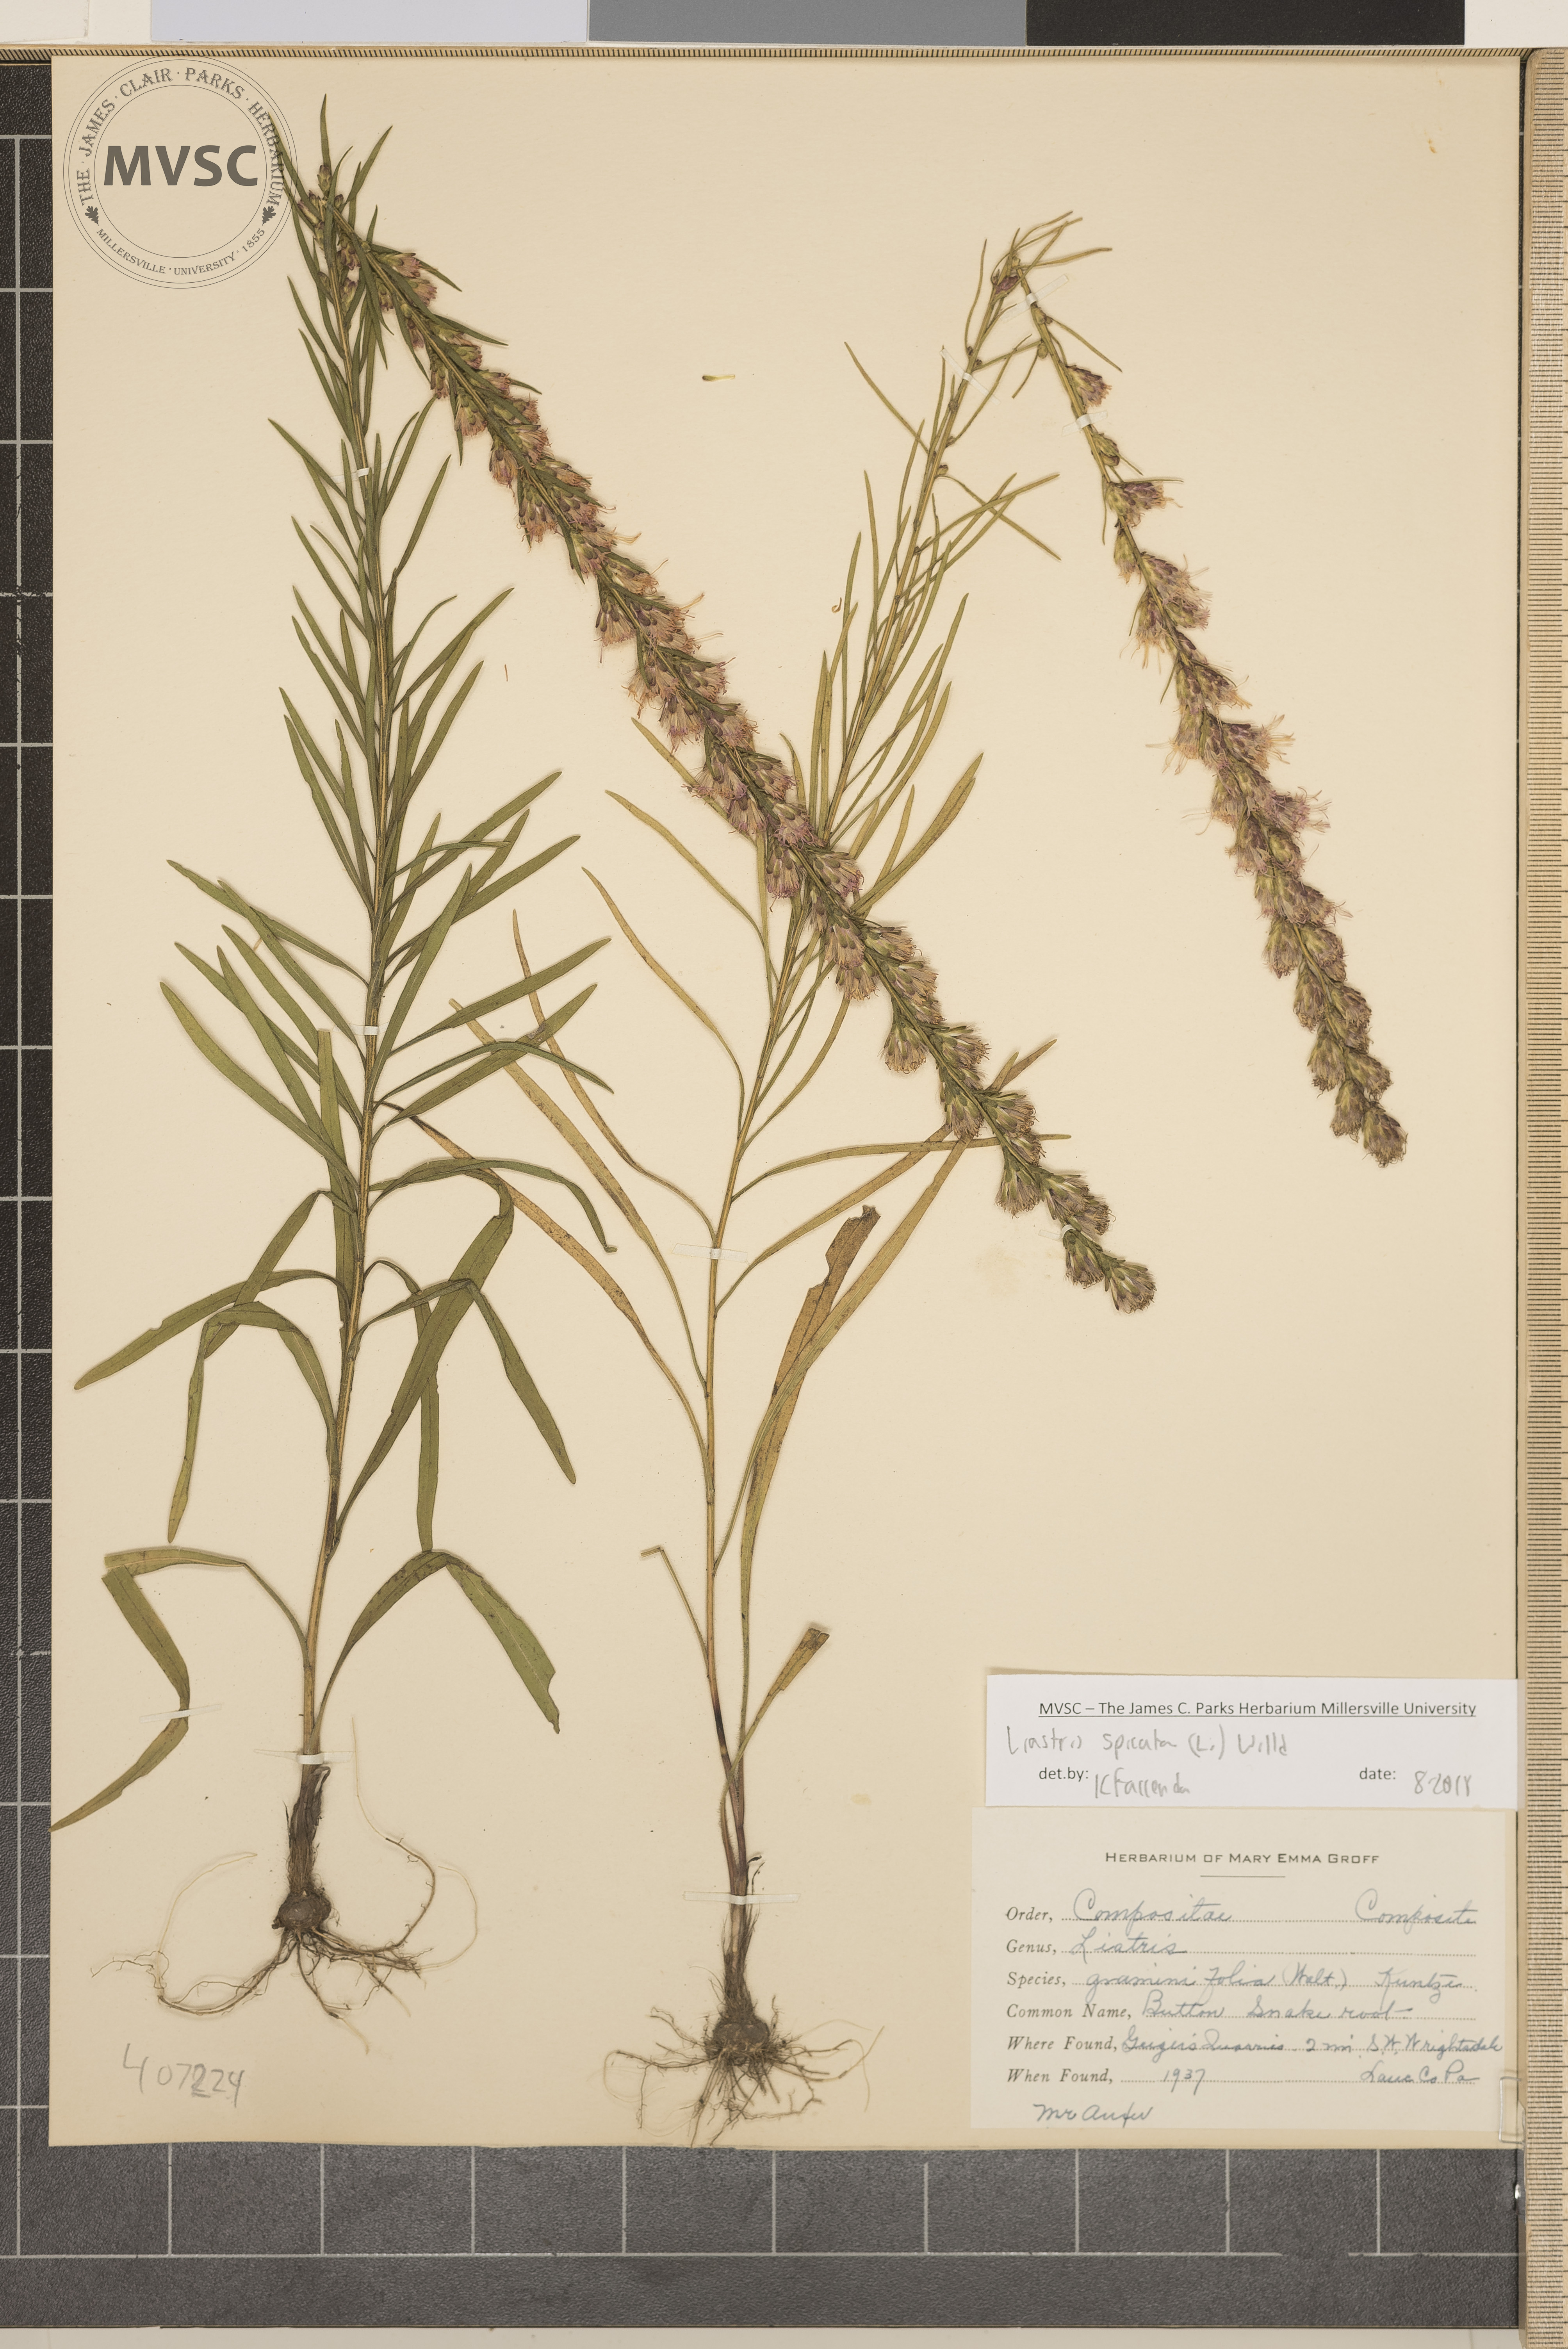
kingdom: Plantae
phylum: Tracheophyta
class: Magnoliopsida
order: Asterales
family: Asteraceae
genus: Liatris
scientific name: Liatris spicata
